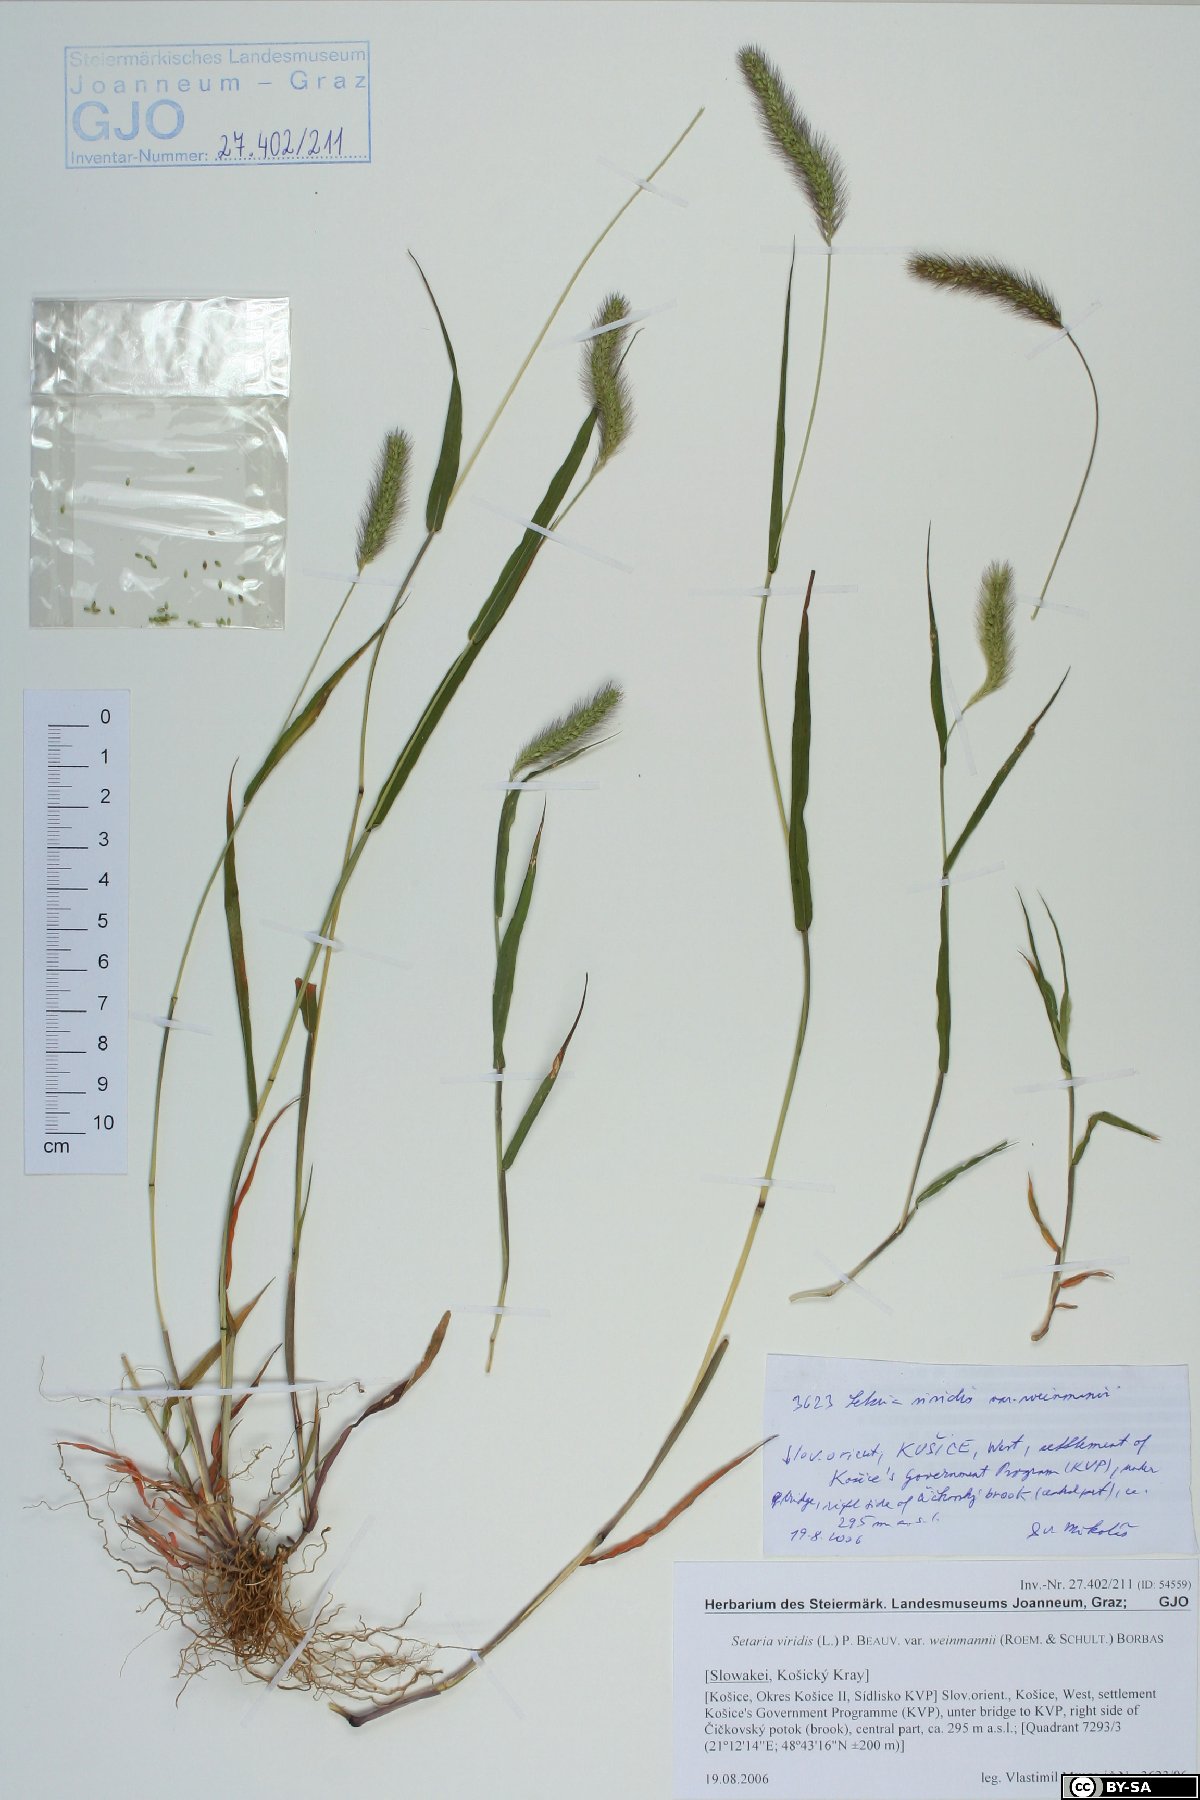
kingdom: Plantae
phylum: Tracheophyta
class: Liliopsida
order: Poales
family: Poaceae
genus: Setaria
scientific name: Setaria viridis
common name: Green bristlegrass
